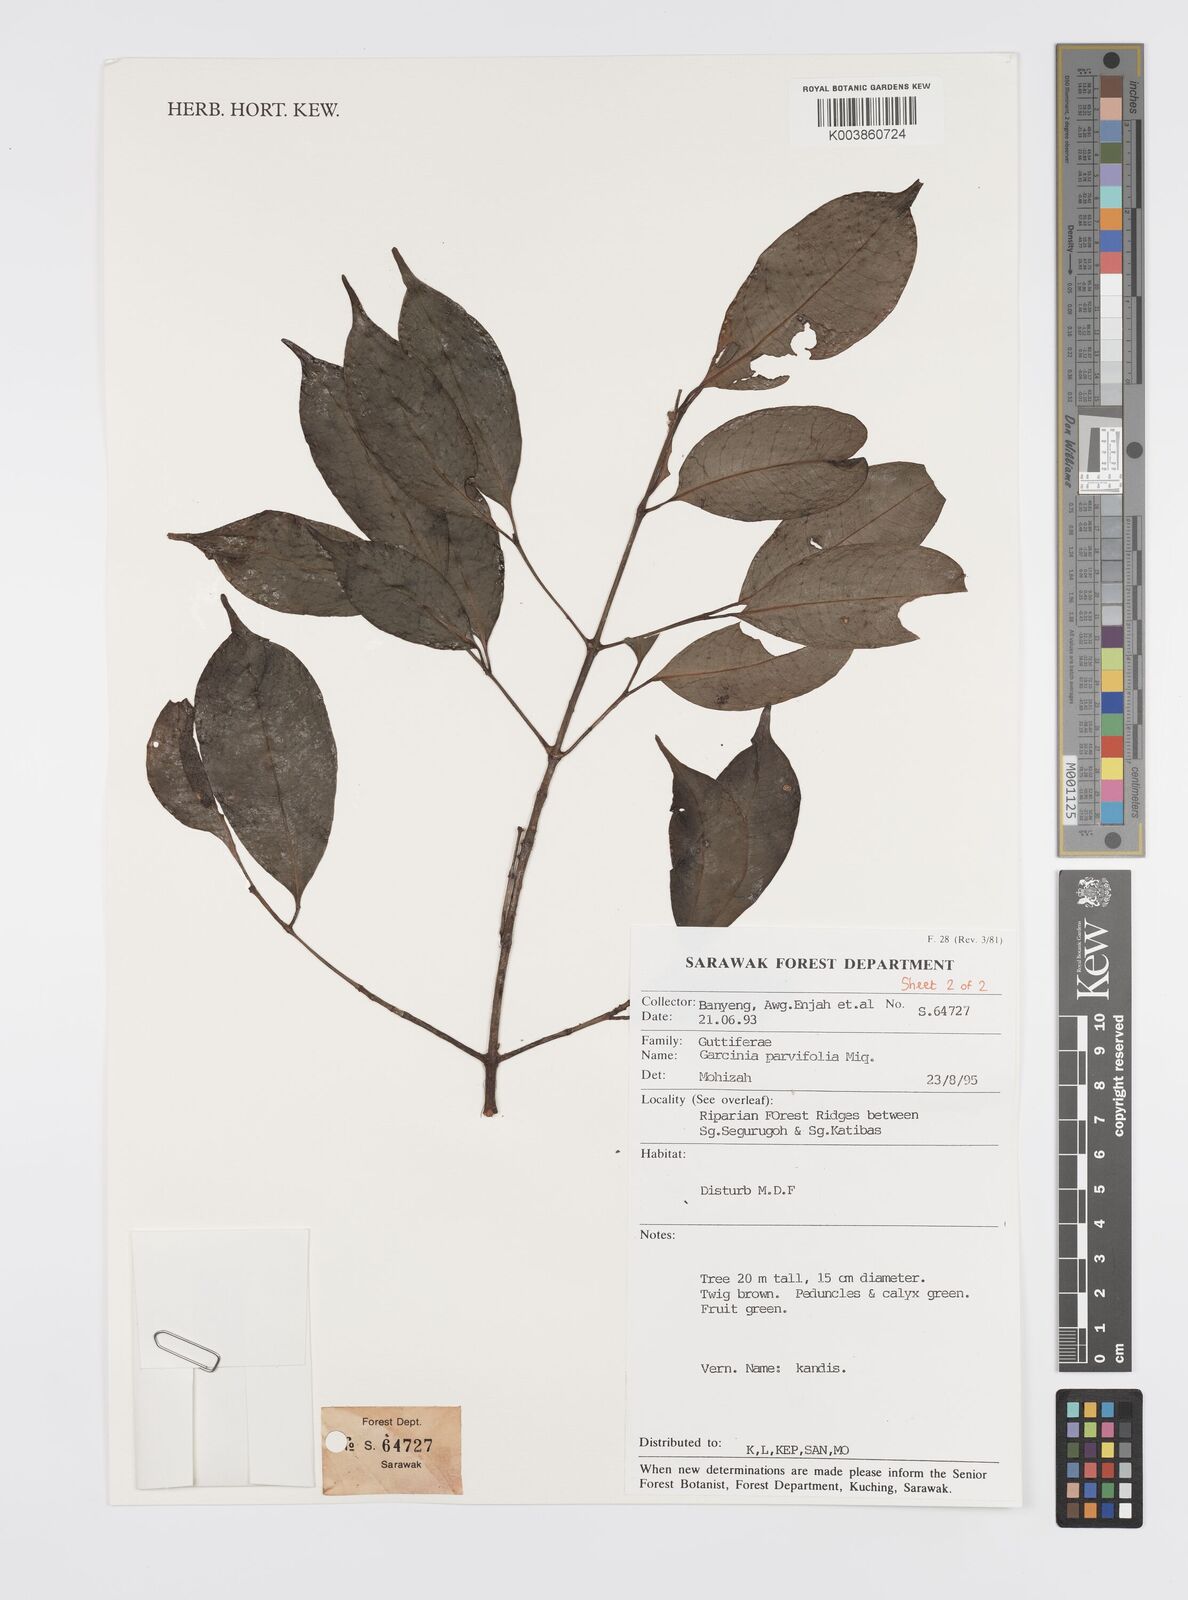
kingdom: Plantae
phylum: Tracheophyta
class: Magnoliopsida
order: Malpighiales
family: Clusiaceae
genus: Garcinia
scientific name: Garcinia parvifolia
